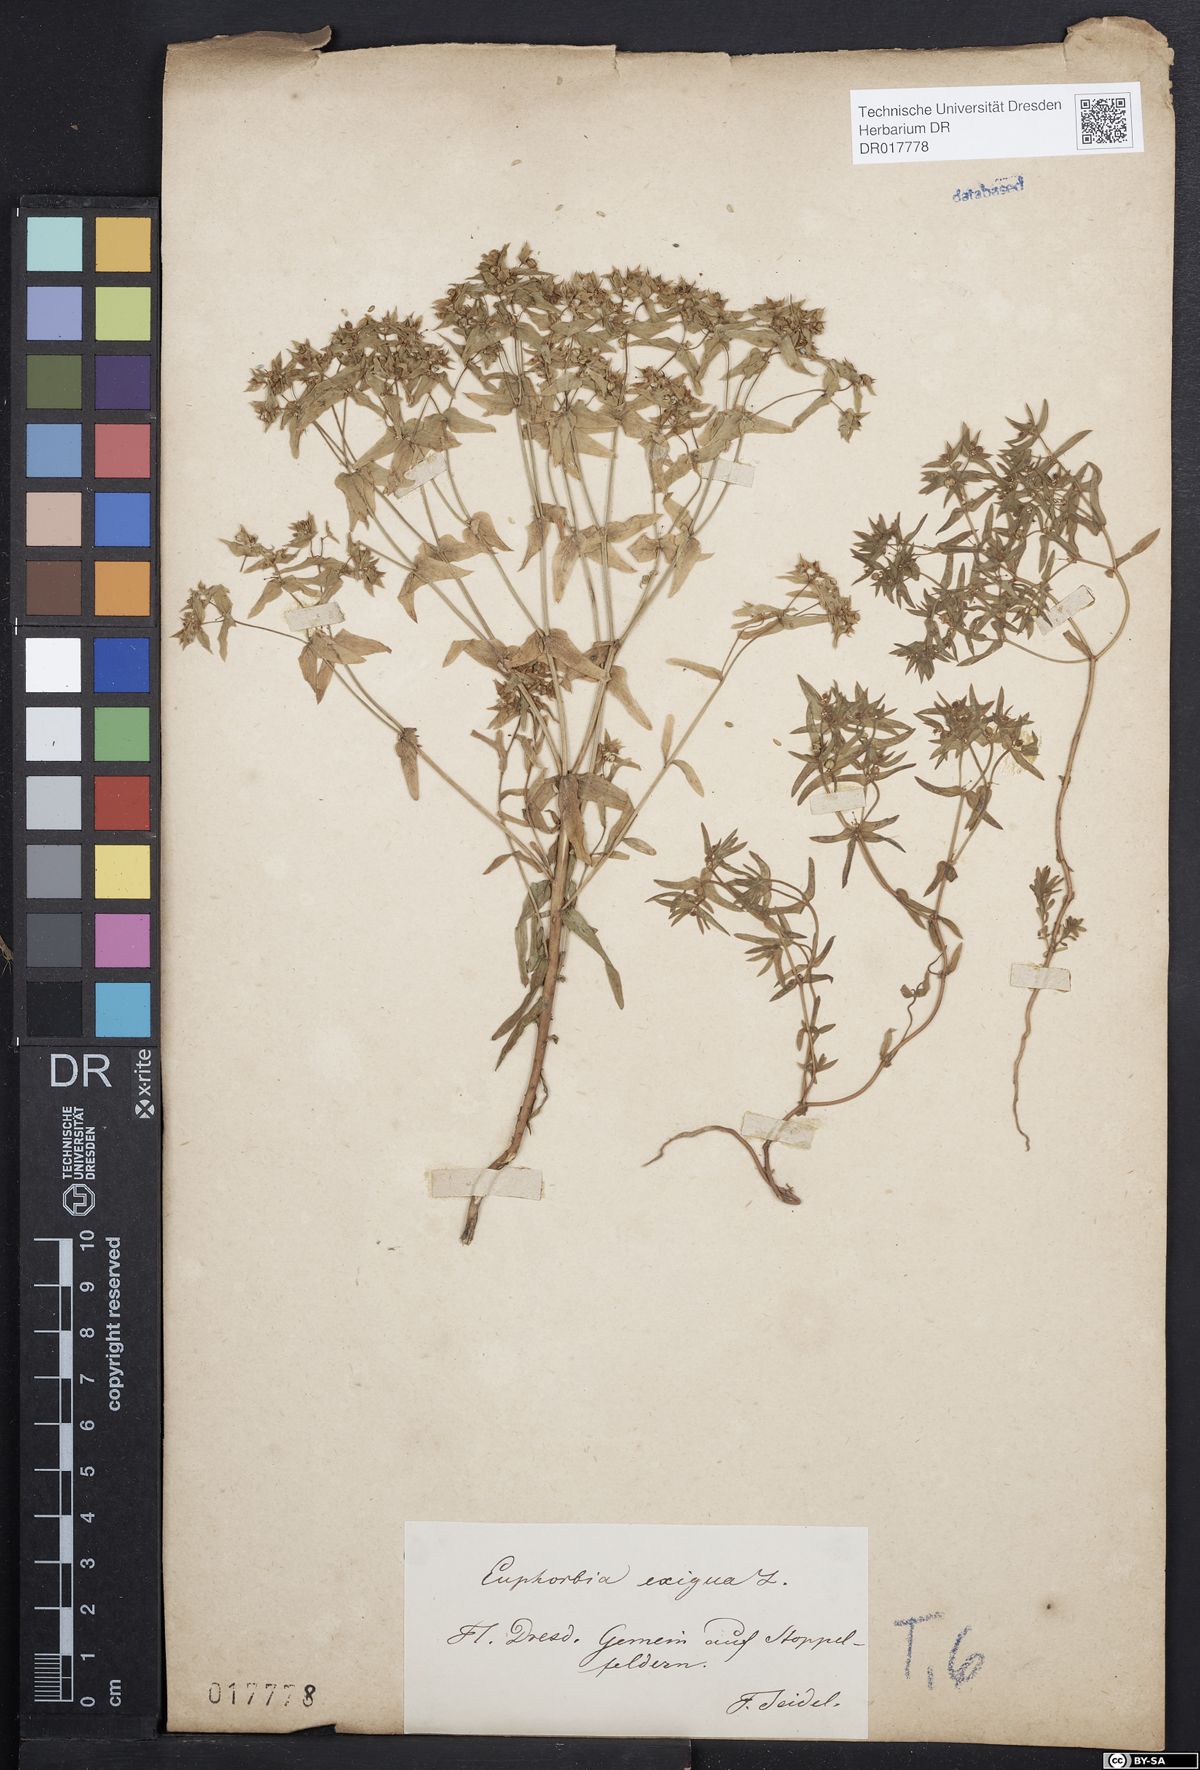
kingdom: Plantae
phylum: Tracheophyta
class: Magnoliopsida
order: Malpighiales
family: Euphorbiaceae
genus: Euphorbia
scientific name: Euphorbia exigua
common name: Dwarf spurge
